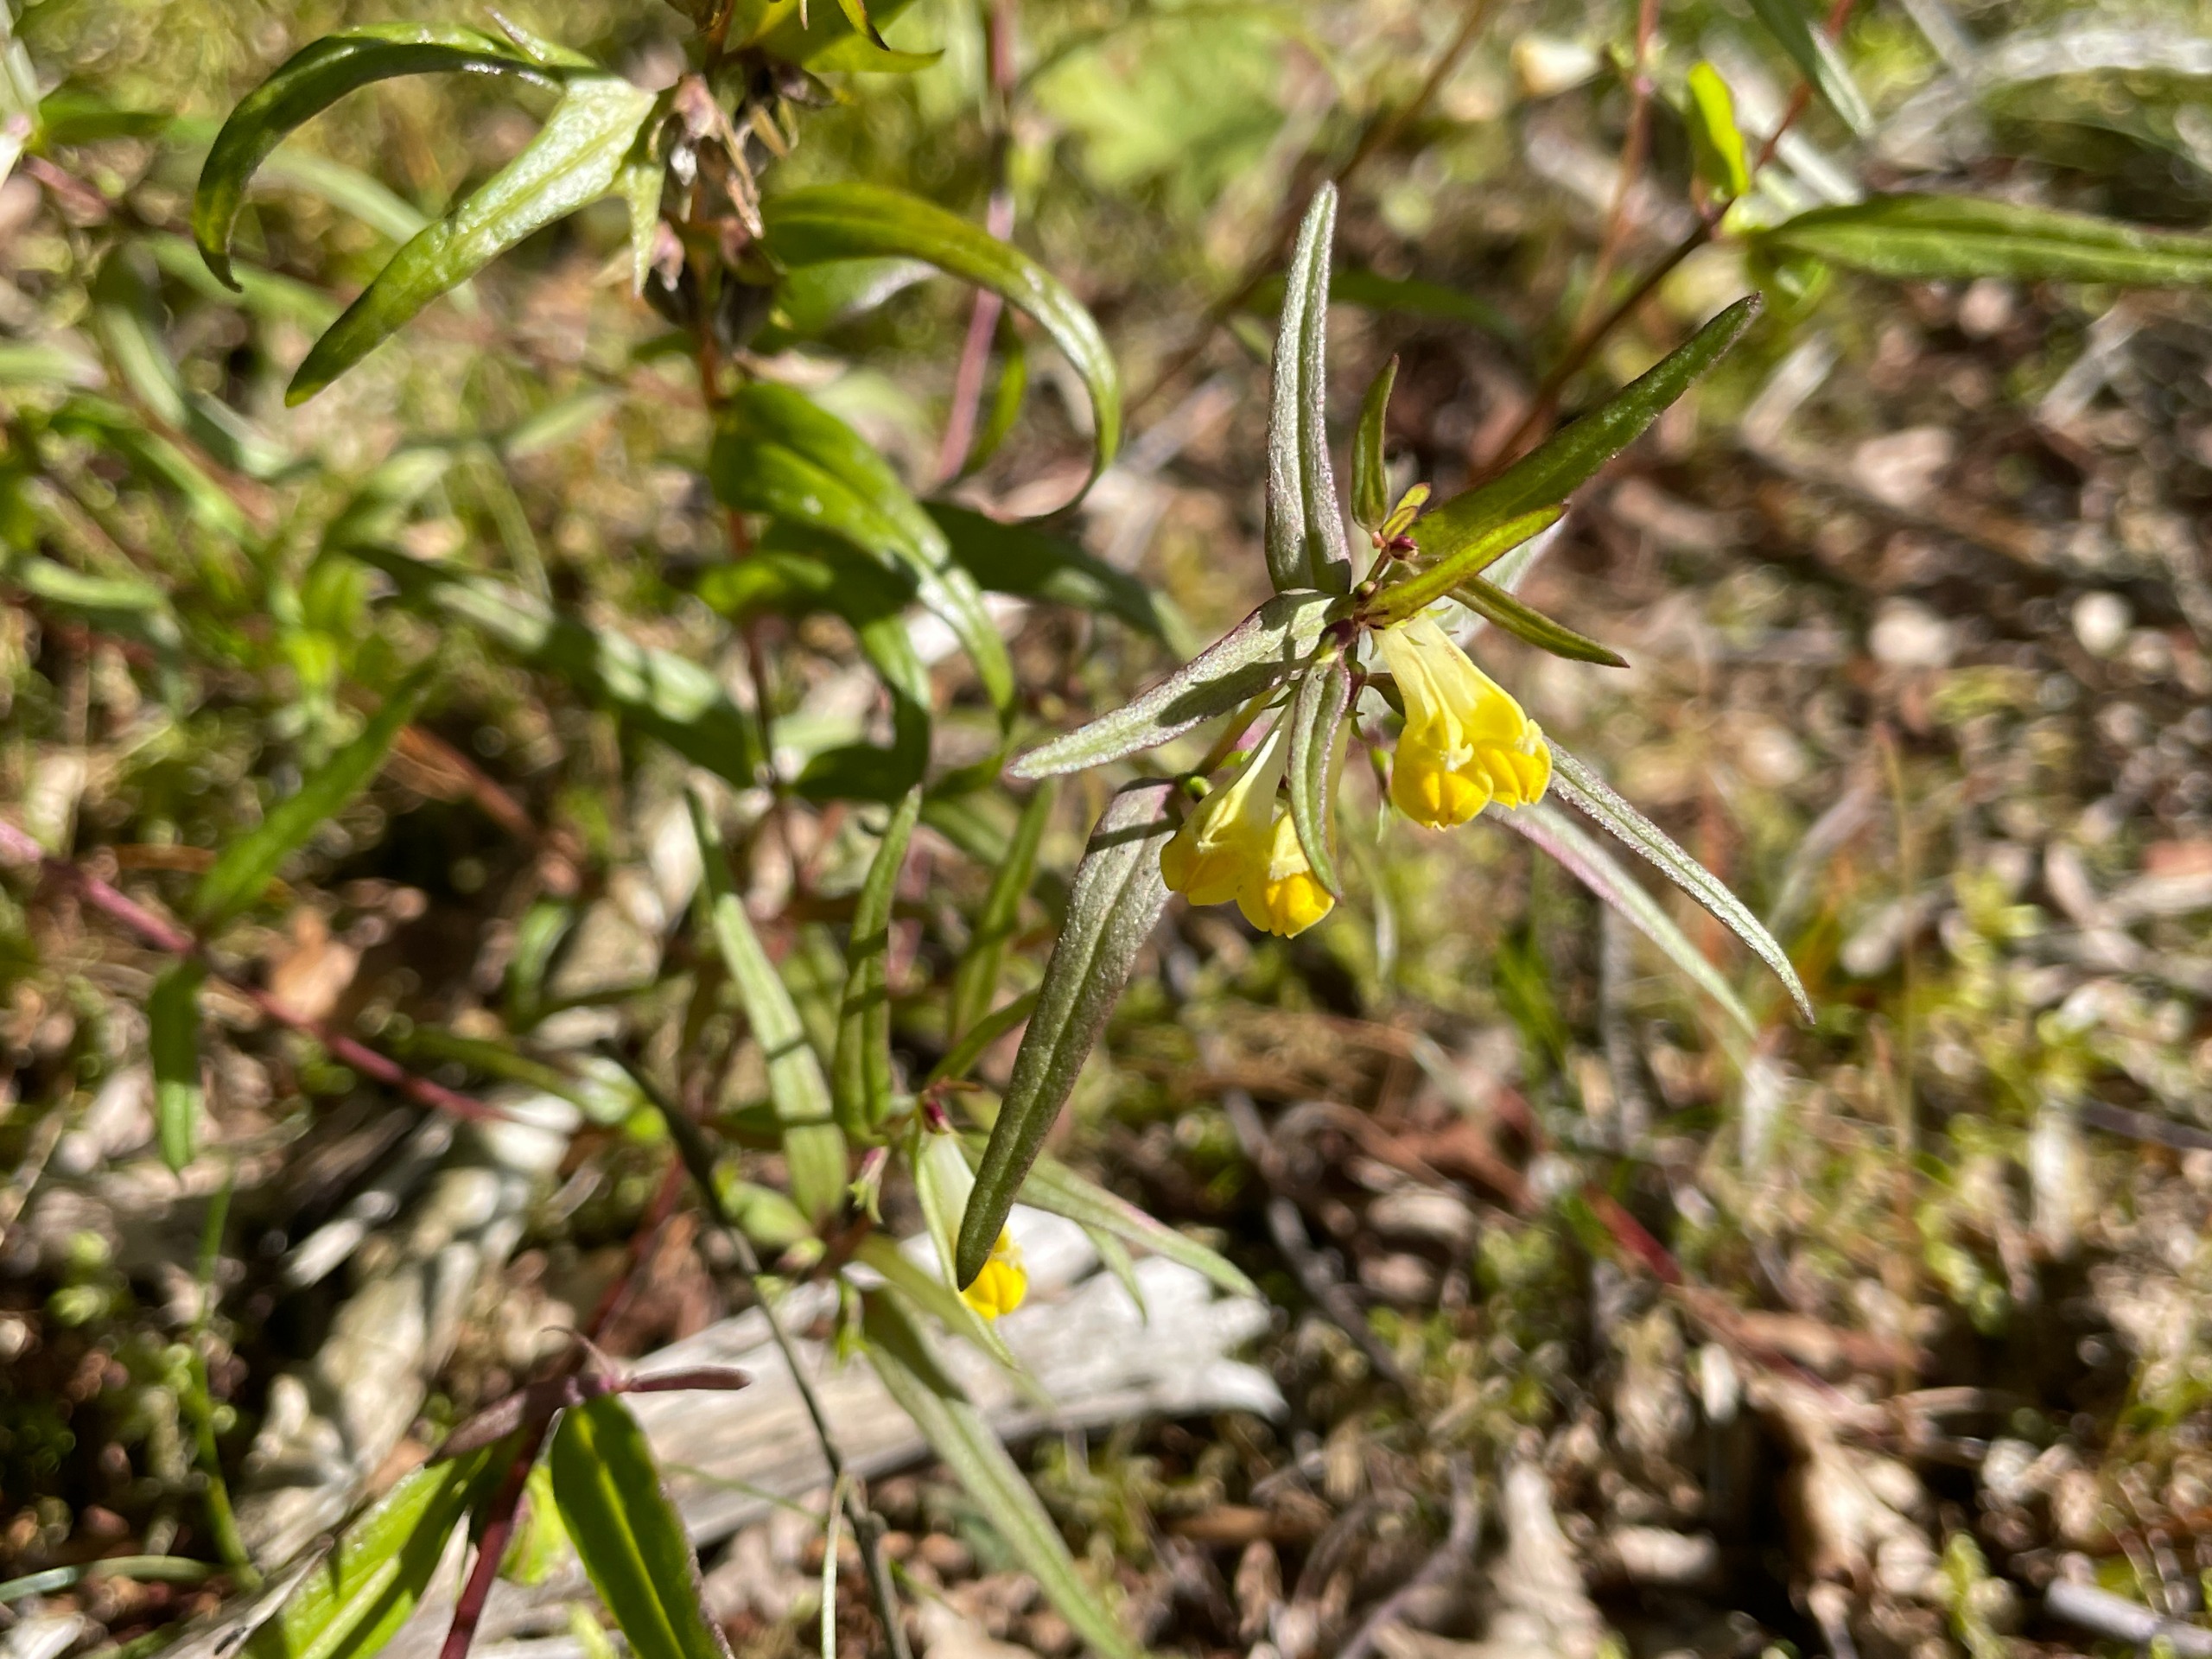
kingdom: Plantae
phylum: Tracheophyta
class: Magnoliopsida
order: Lamiales
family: Orobanchaceae
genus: Melampyrum
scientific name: Melampyrum pratense
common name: Almindelig kohvede
